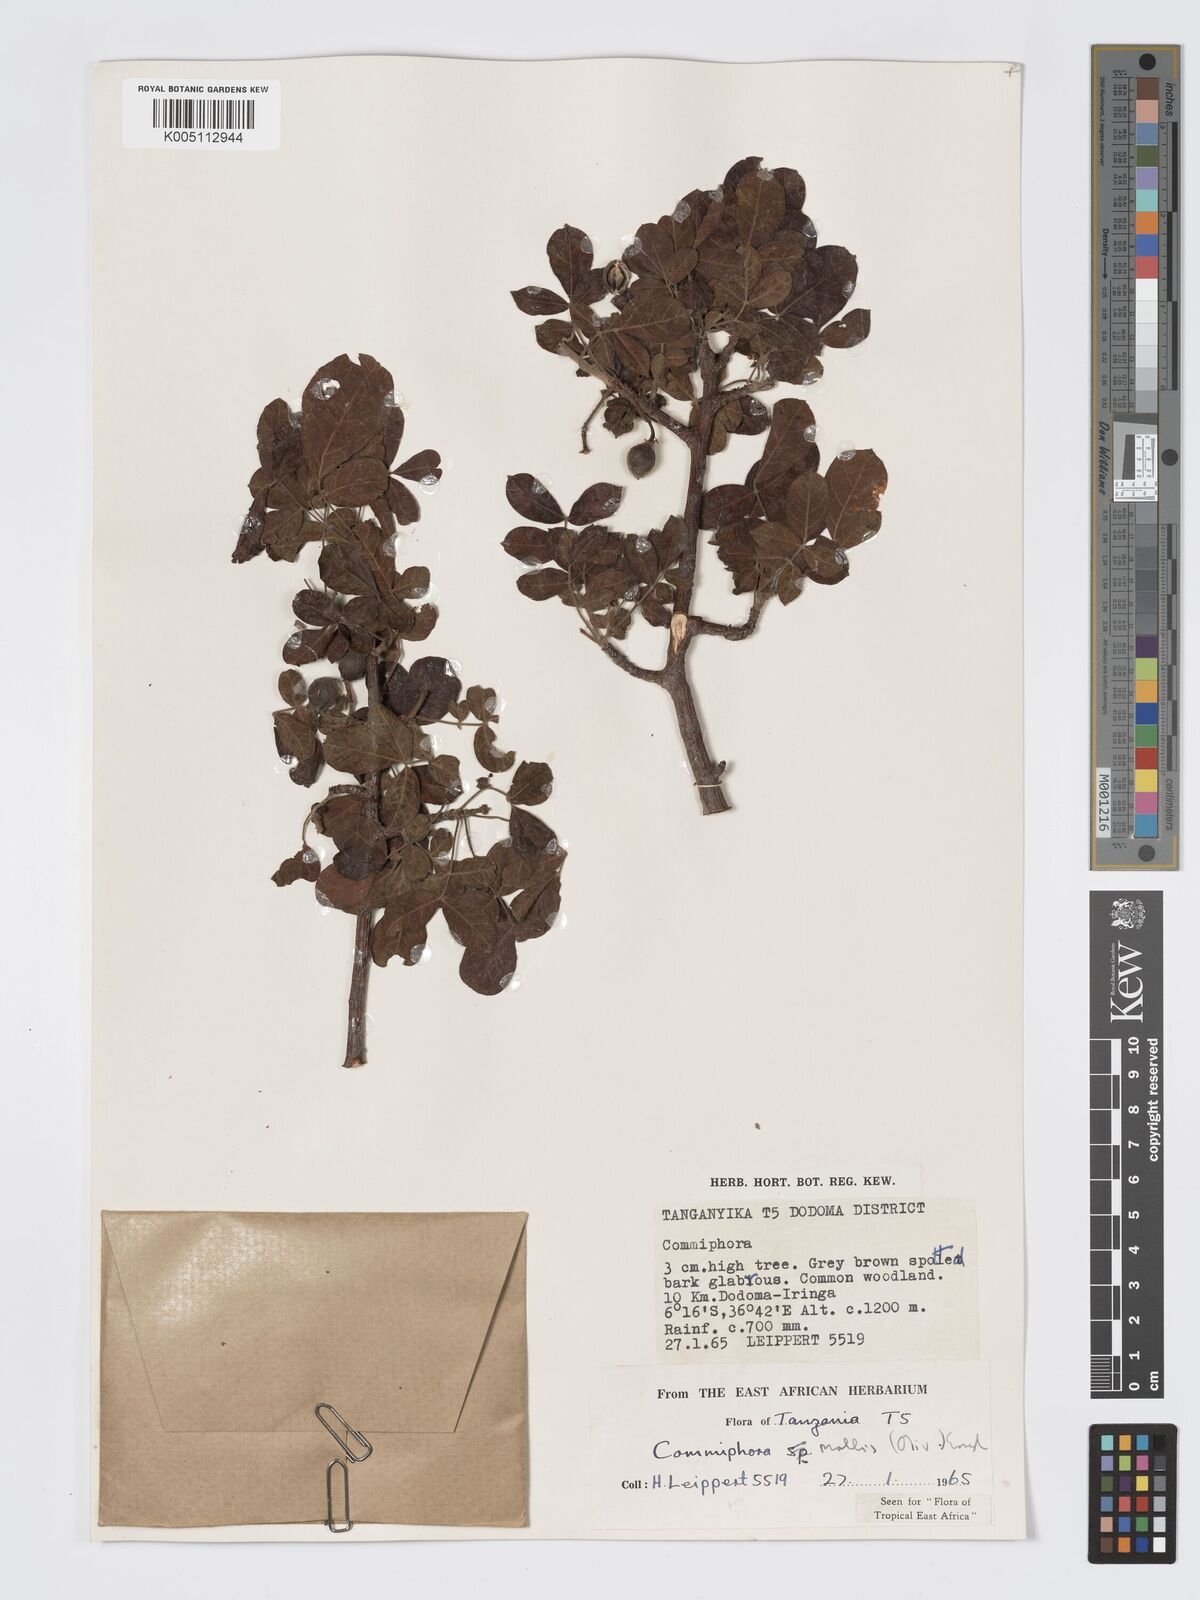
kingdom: Plantae
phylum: Tracheophyta
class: Magnoliopsida
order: Sapindales
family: Burseraceae
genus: Commiphora
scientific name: Commiphora
